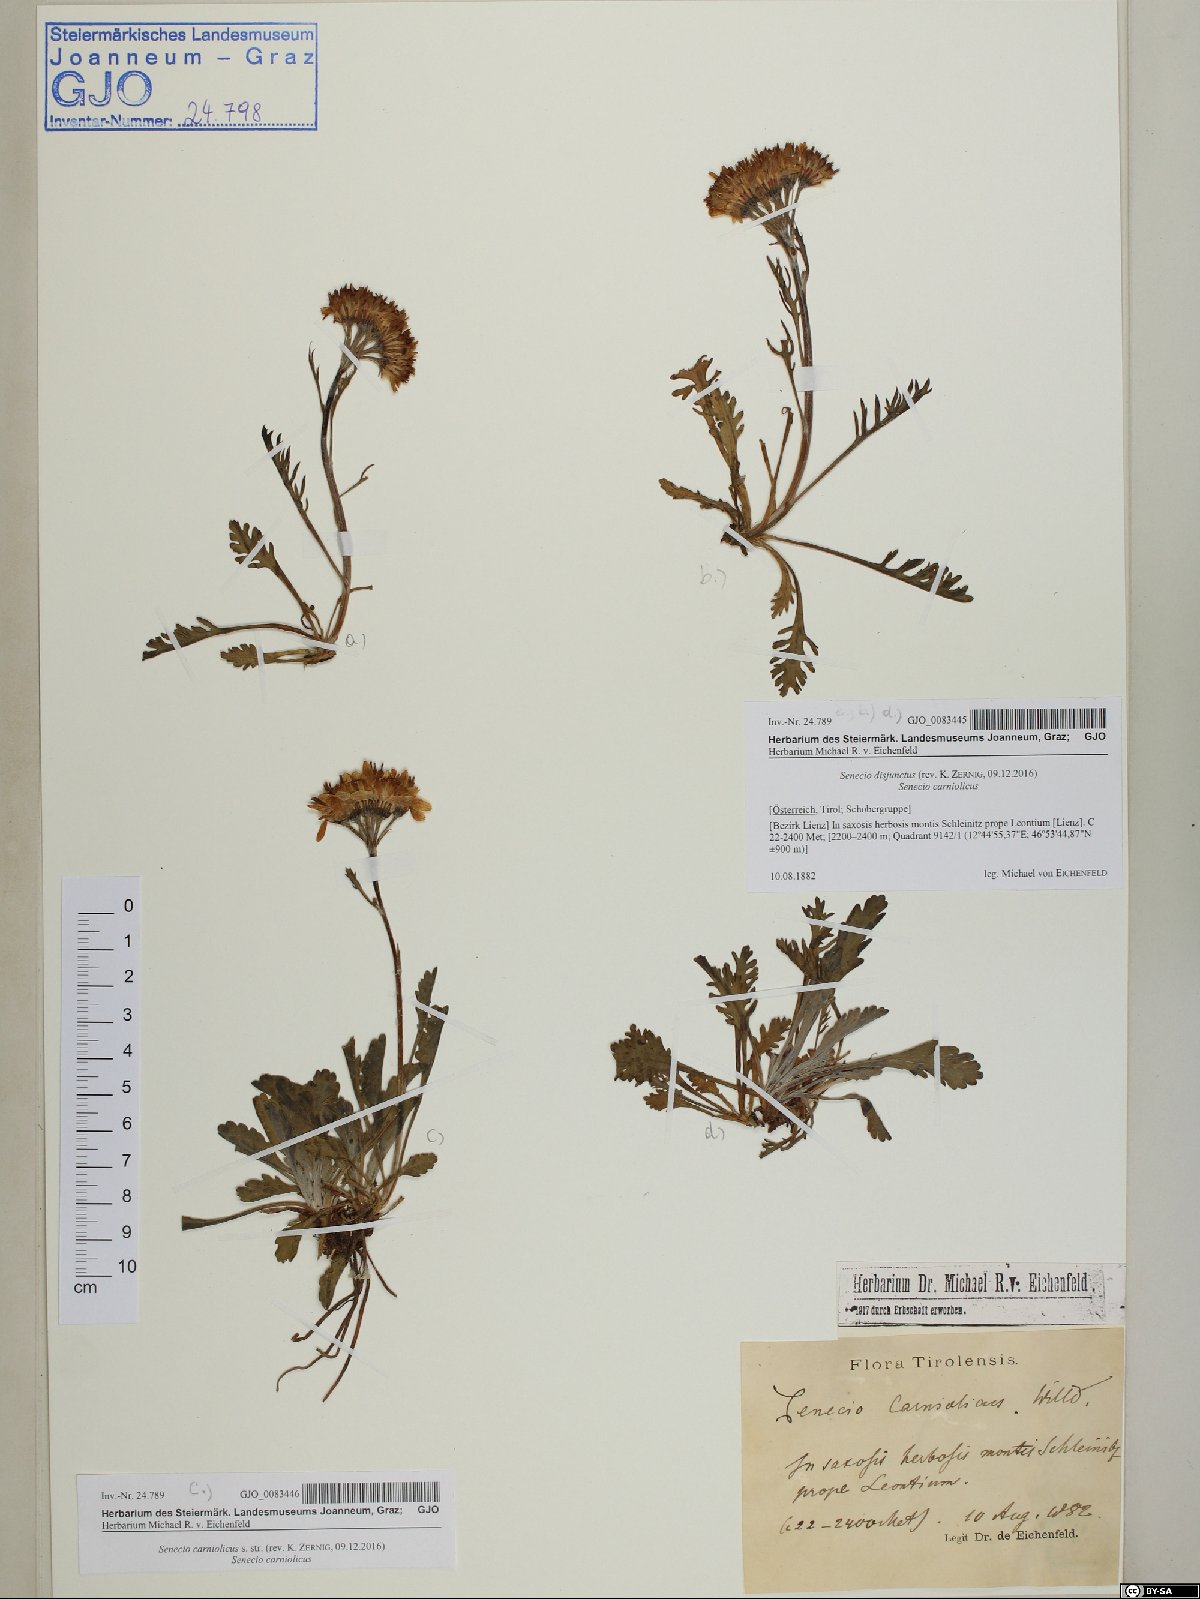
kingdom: Plantae
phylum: Tracheophyta
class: Magnoliopsida
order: Asterales
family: Asteraceae
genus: Jacobaea
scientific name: Jacobaea disjuncta
